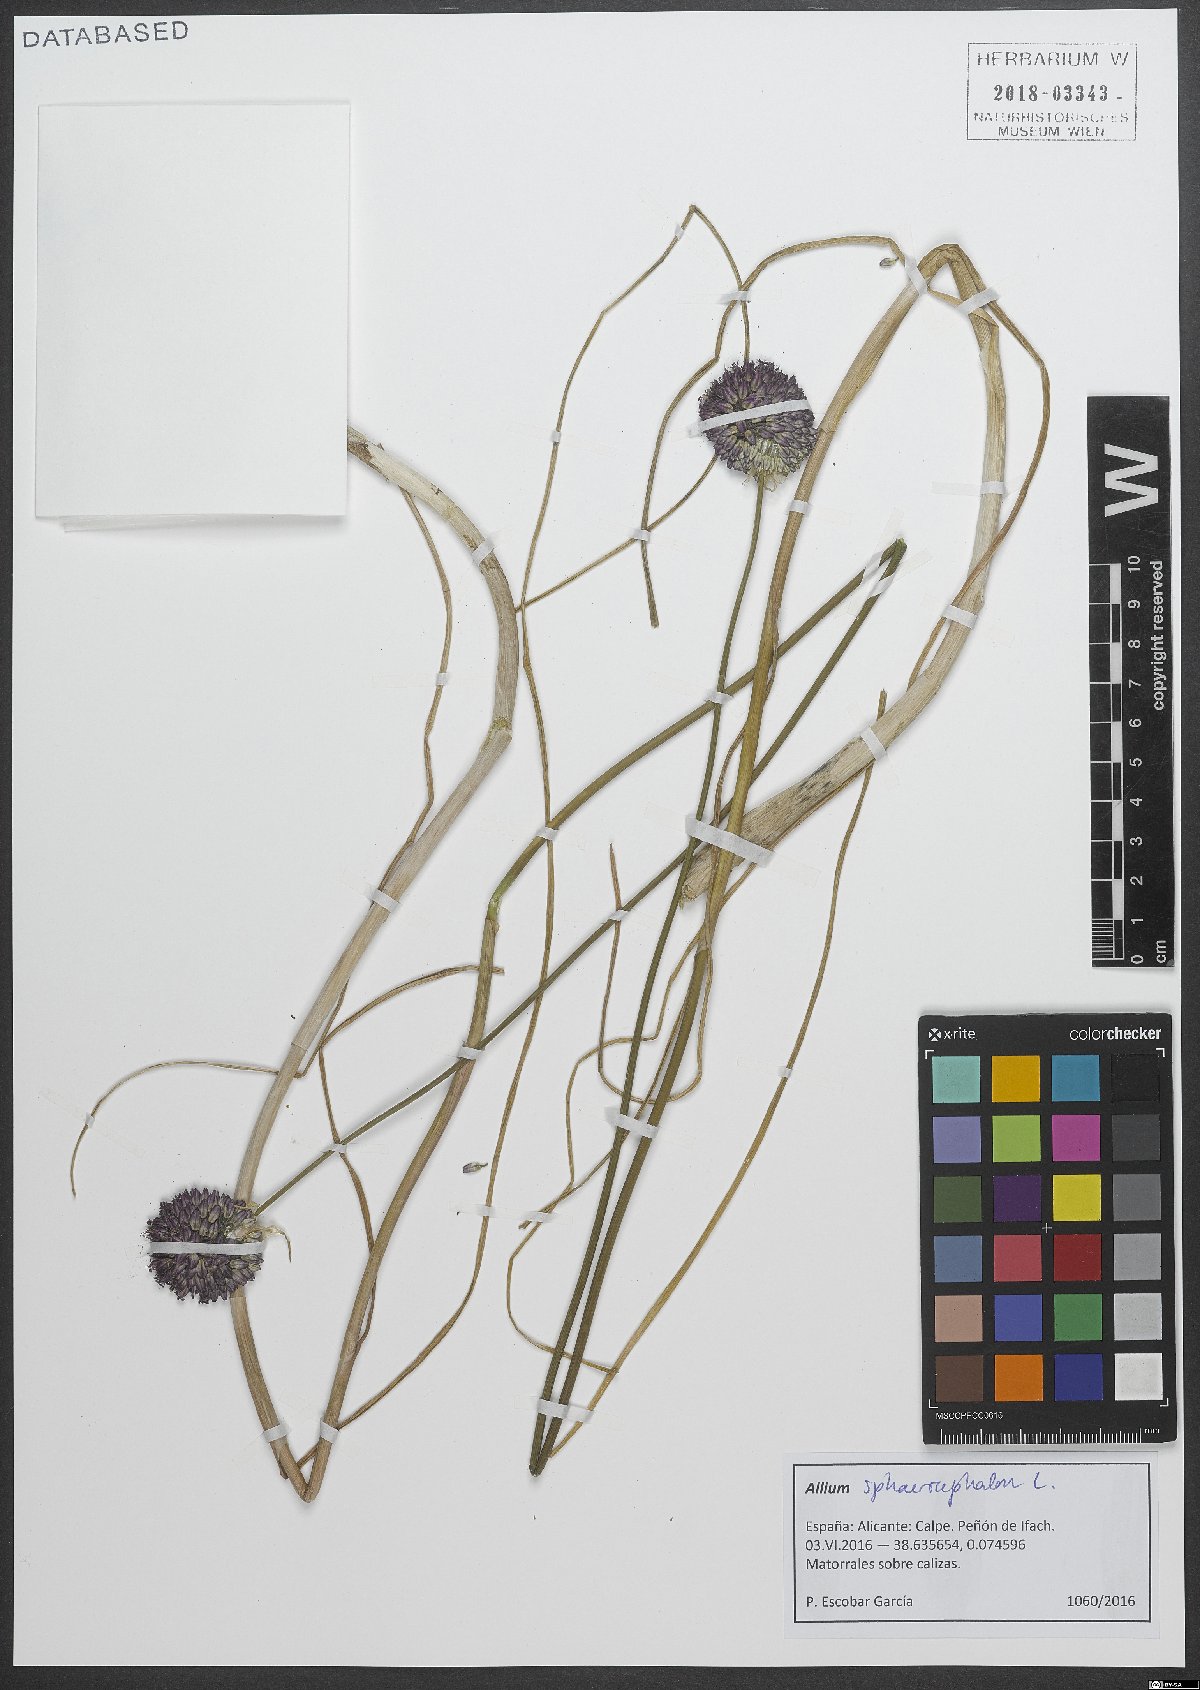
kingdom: Plantae
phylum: Tracheophyta
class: Liliopsida
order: Asparagales
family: Amaryllidaceae
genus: Allium
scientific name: Allium sphaerocephalon
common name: Round-headed leek
